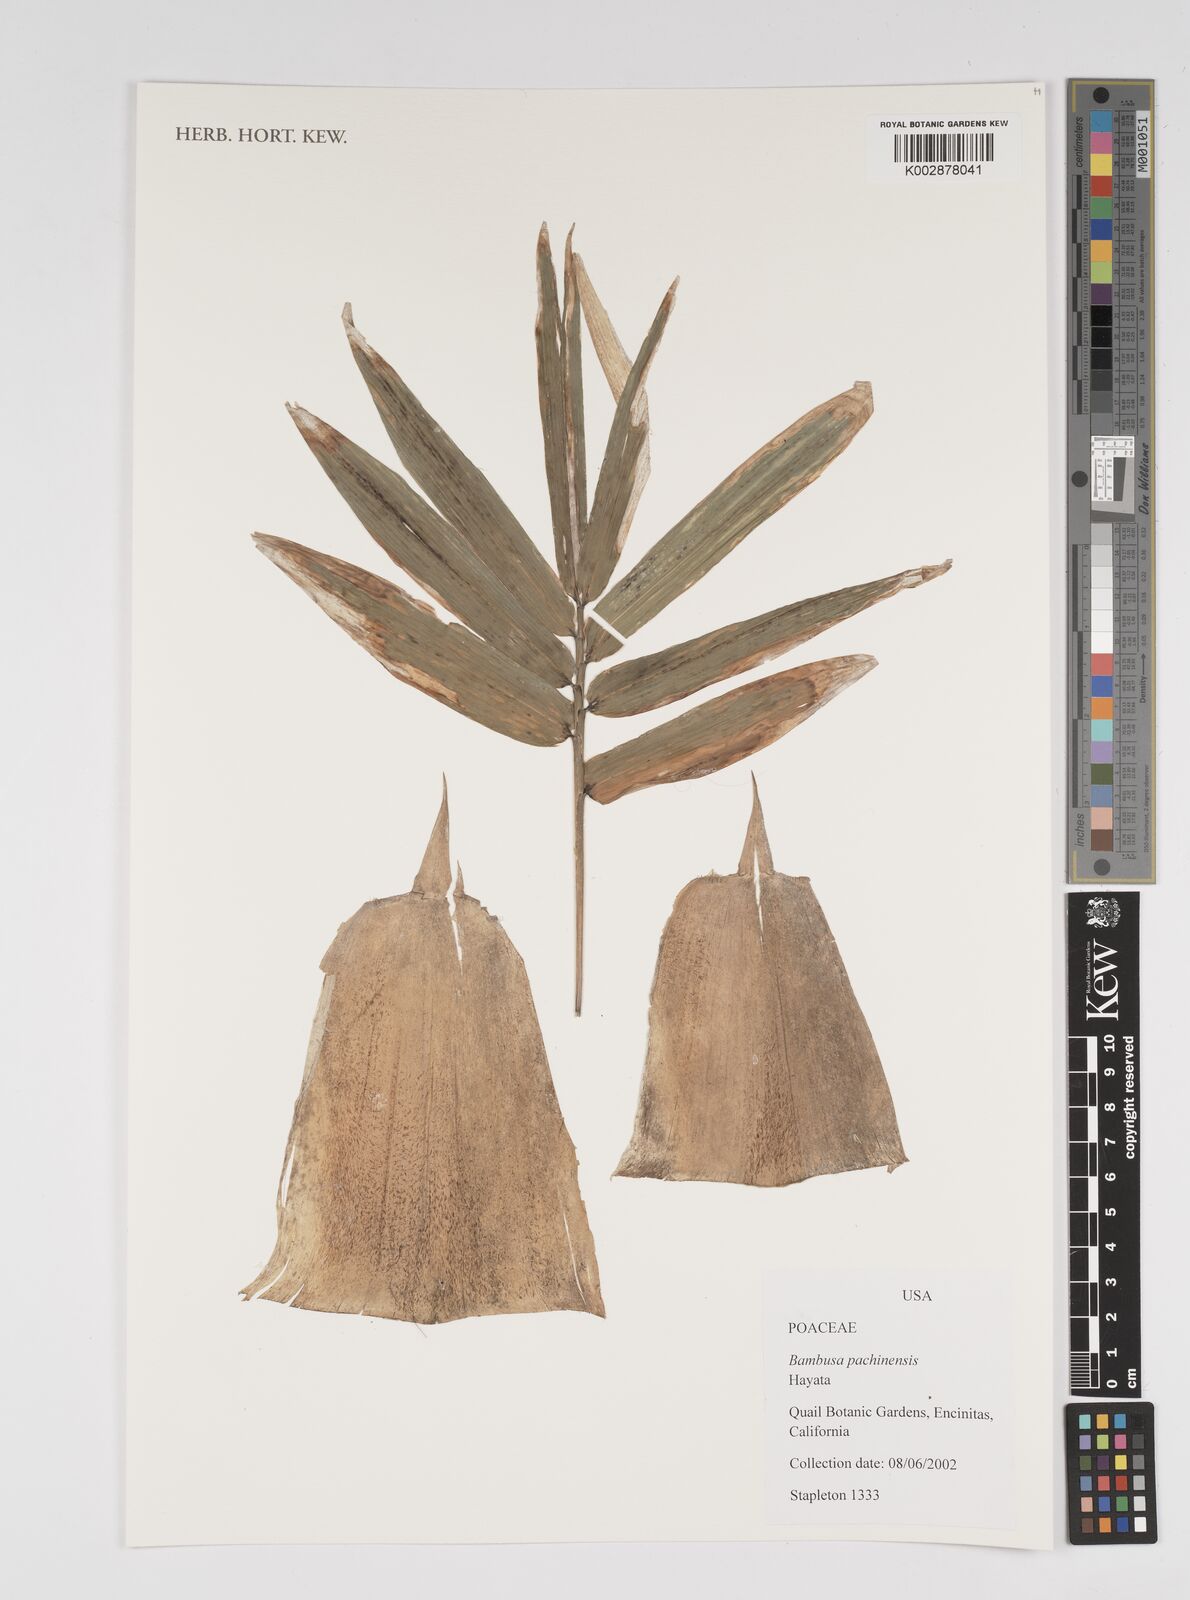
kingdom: Plantae
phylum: Tracheophyta
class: Liliopsida
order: Poales
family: Poaceae
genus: Bambusa
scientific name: Bambusa pachinensis
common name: Pachi bamboo
